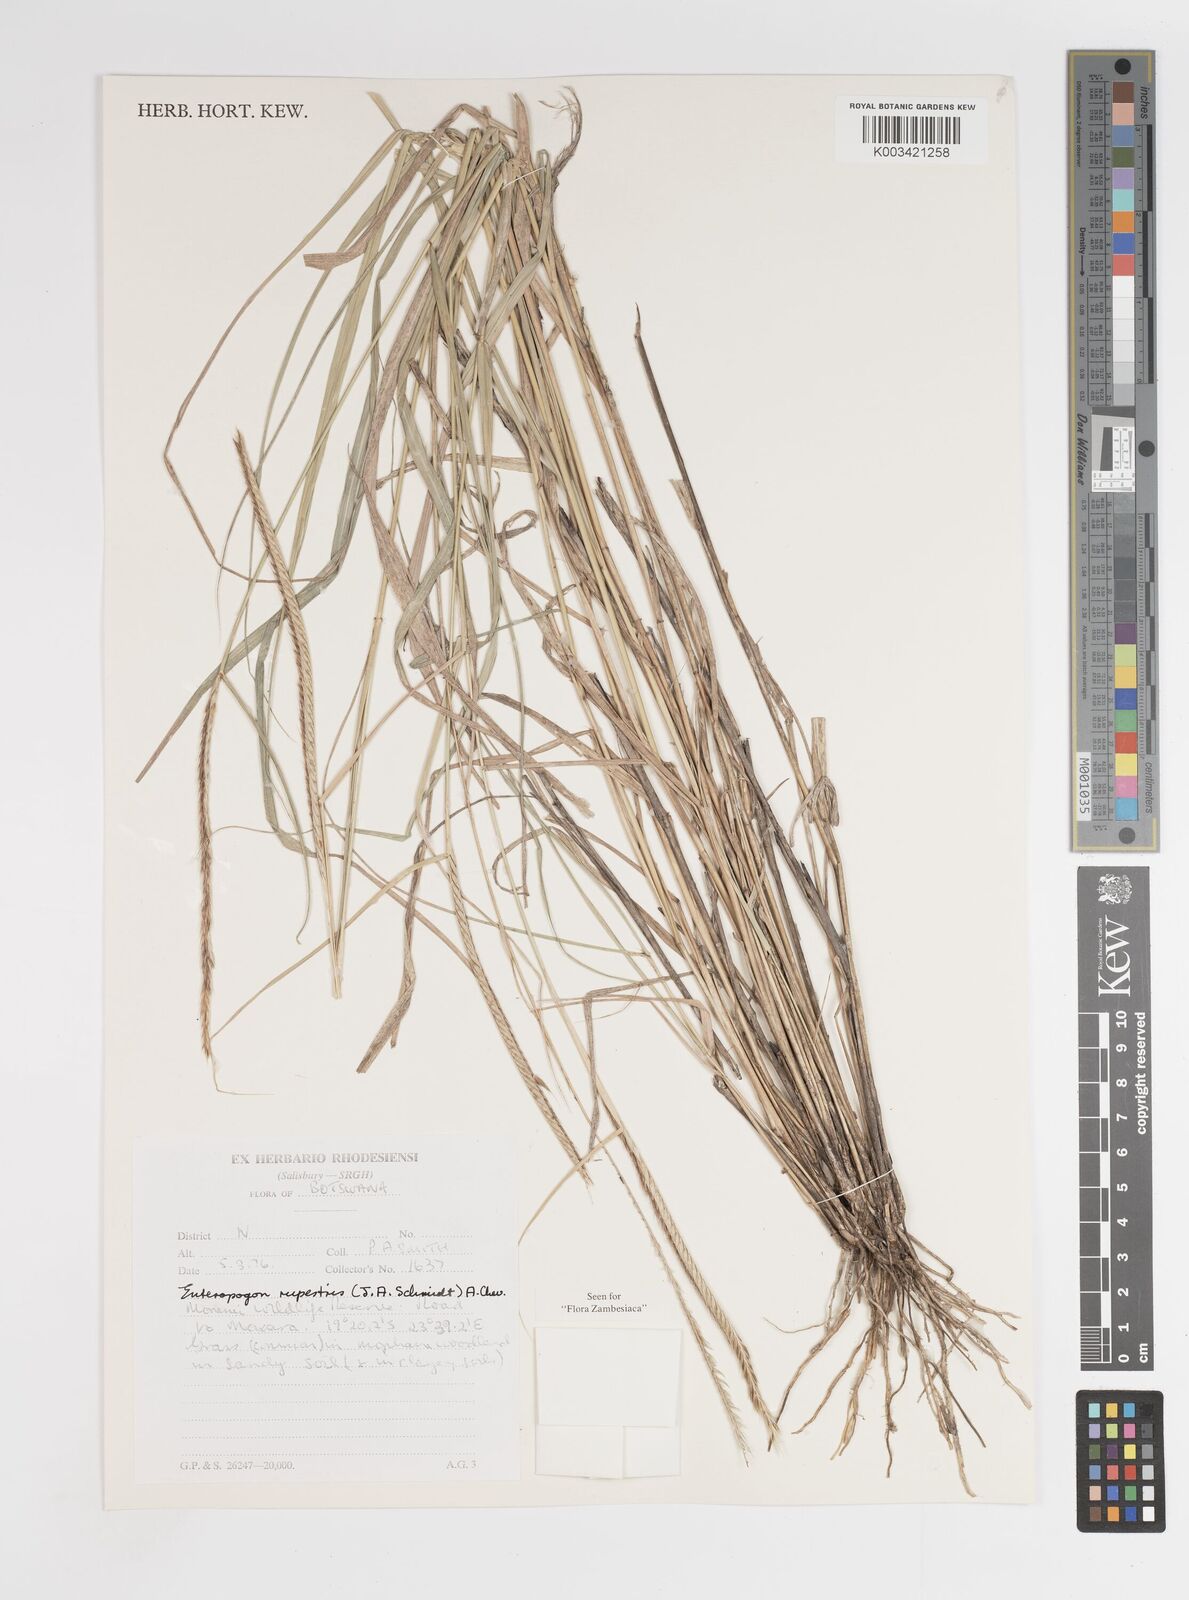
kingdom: Plantae
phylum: Tracheophyta
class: Liliopsida
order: Poales
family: Poaceae
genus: Enteropogon
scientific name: Enteropogon rupestris
